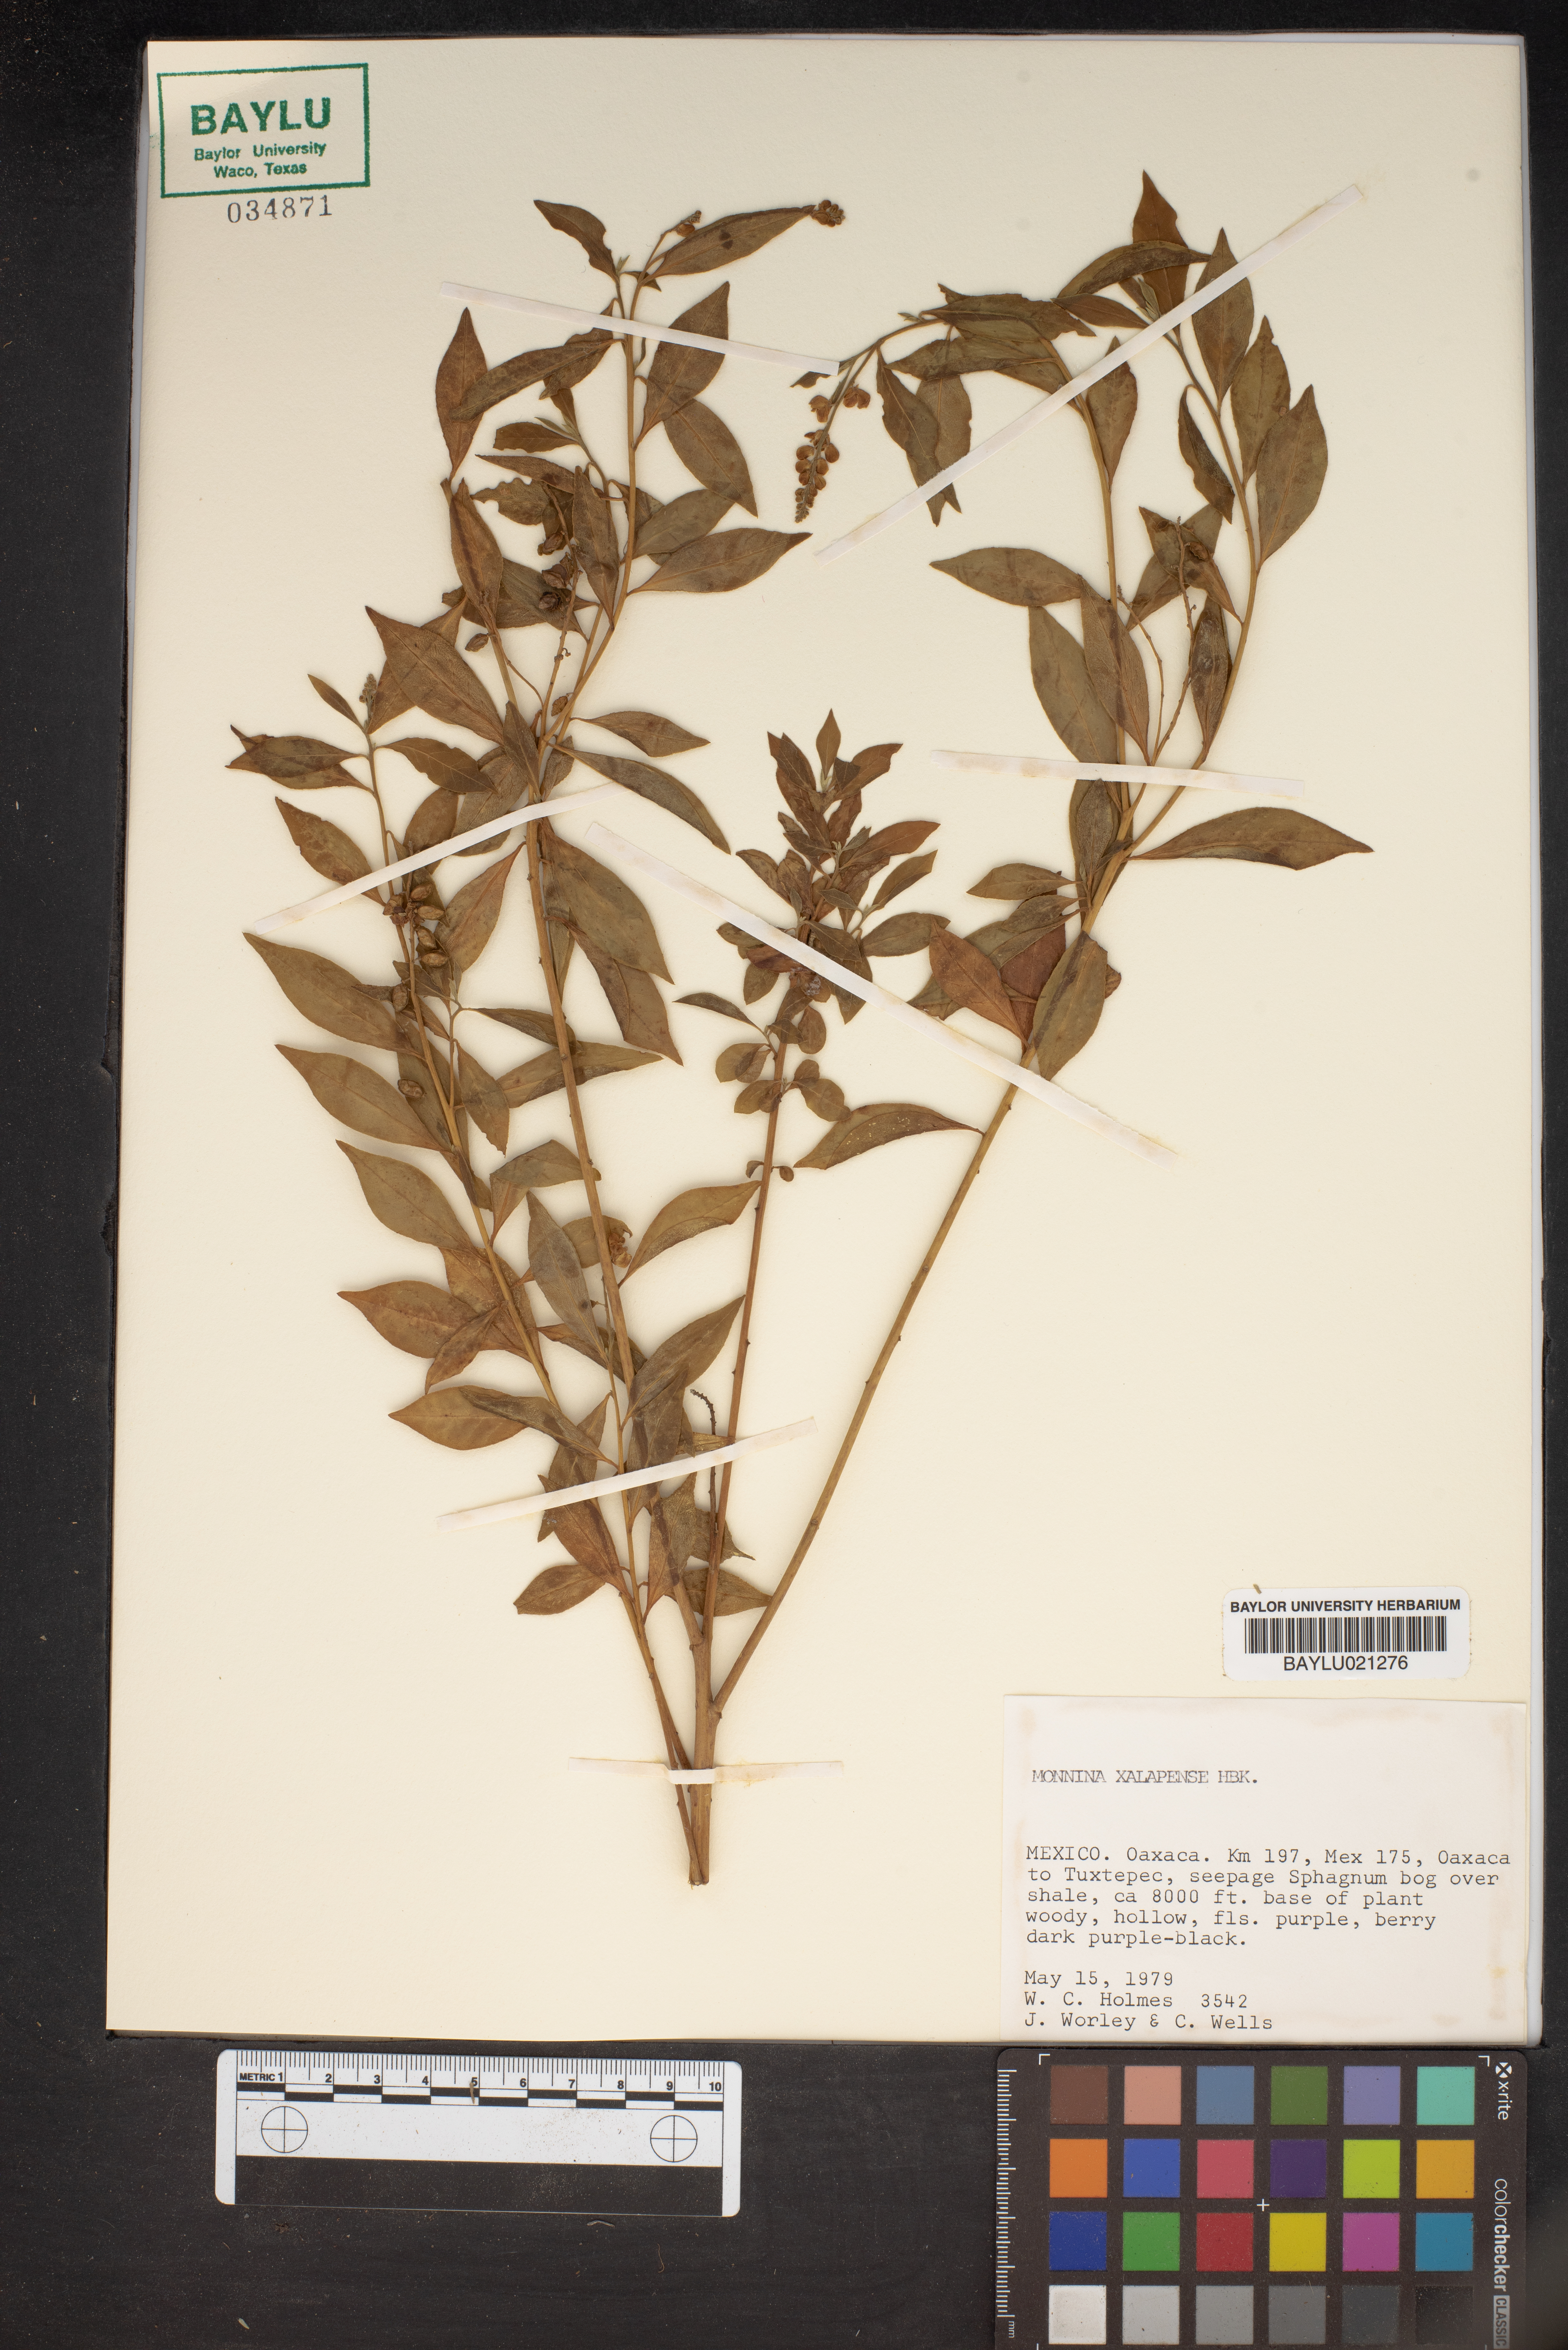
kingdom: Plantae
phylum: Tracheophyta
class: Magnoliopsida
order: Fabales
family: Polygalaceae
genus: Monnina
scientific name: Monnina xalapensis
